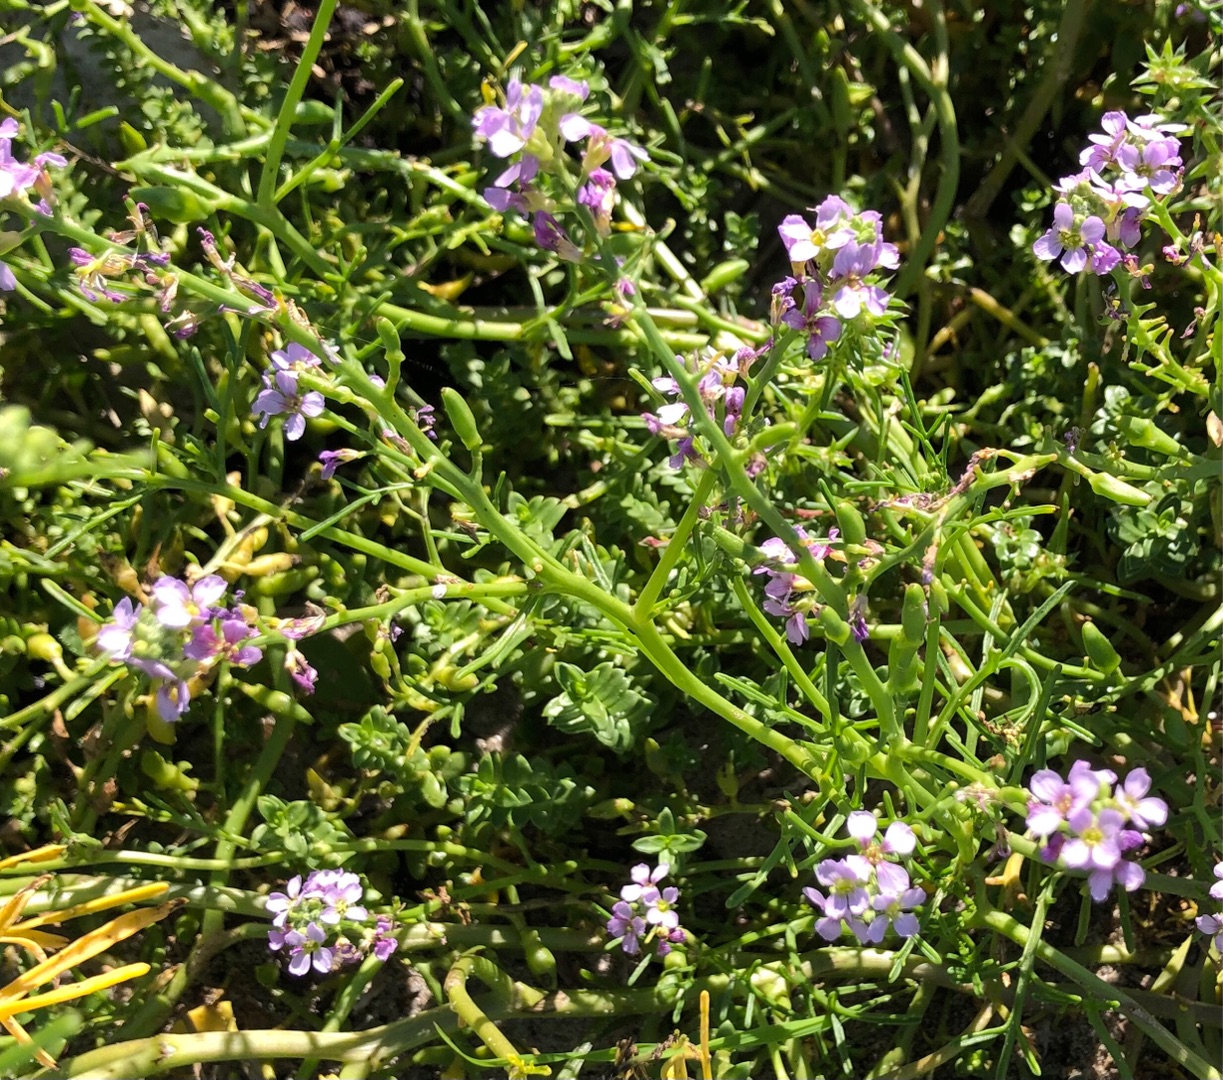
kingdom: Plantae
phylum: Tracheophyta
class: Magnoliopsida
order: Brassicales
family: Brassicaceae
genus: Cakile
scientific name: Cakile maritima
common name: Strandsennep
